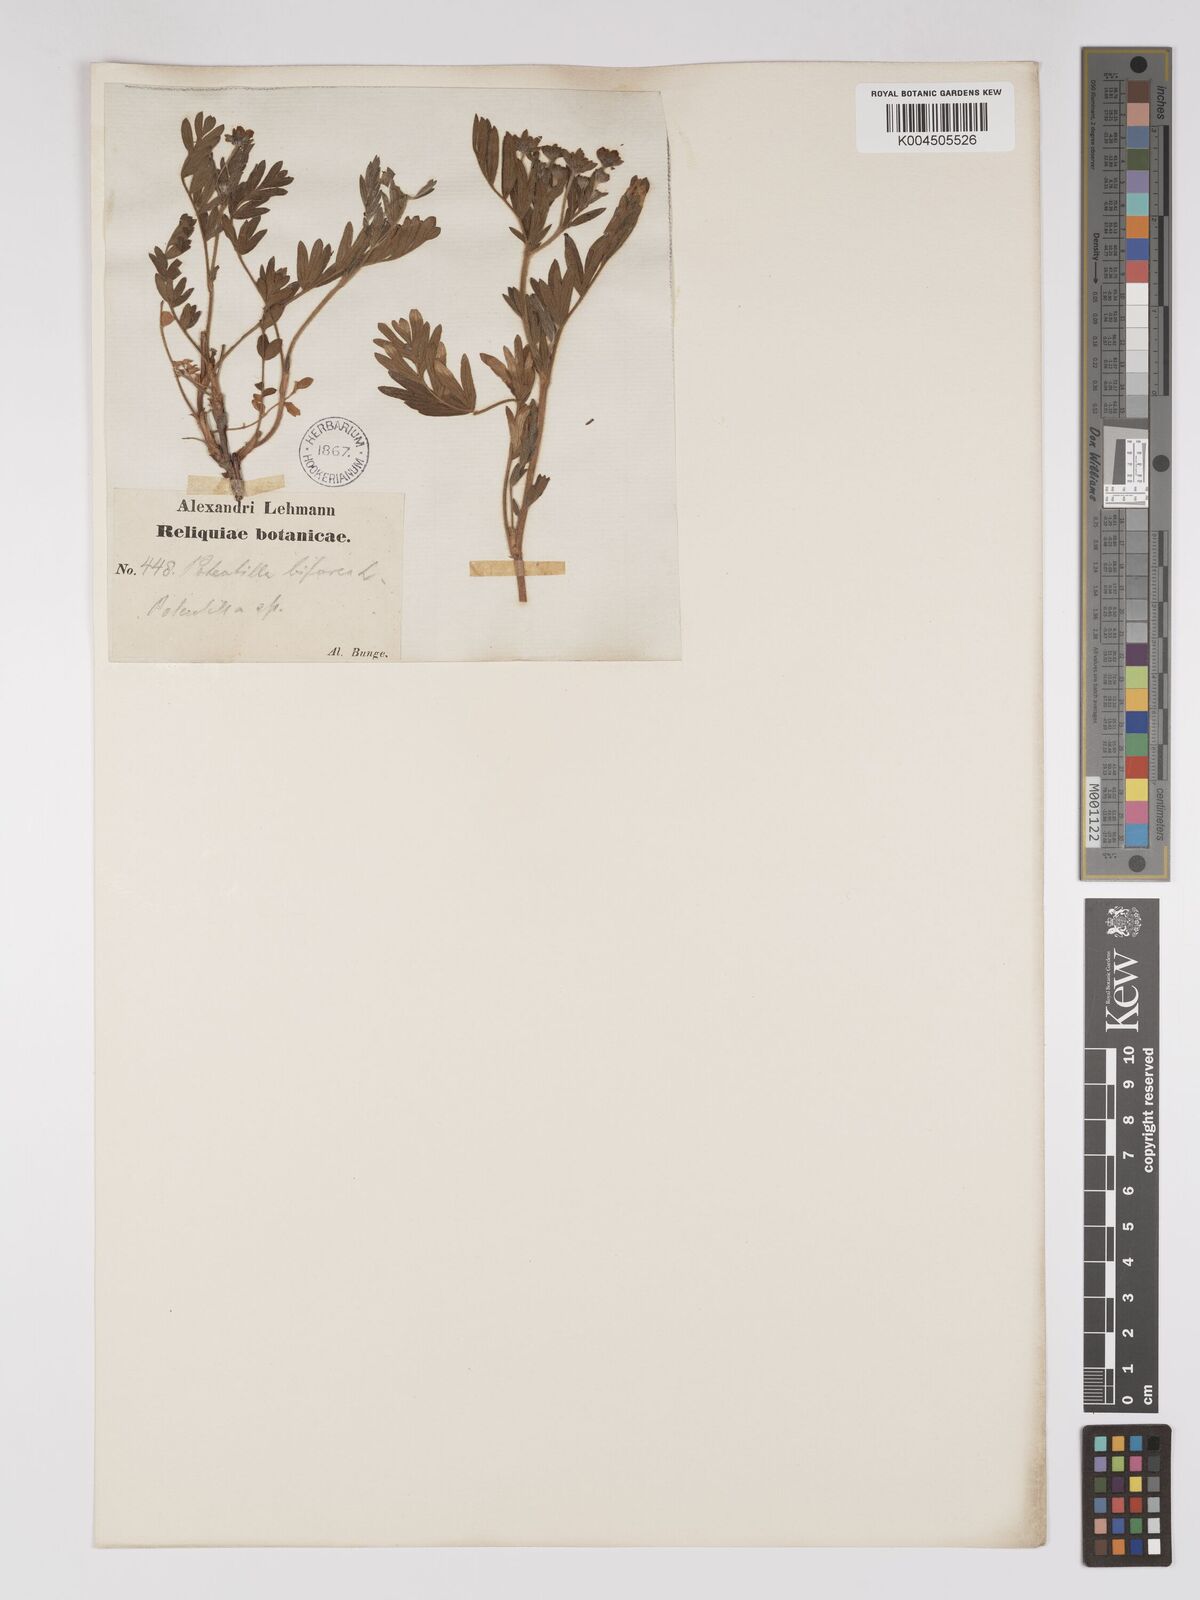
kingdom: Plantae
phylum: Tracheophyta
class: Magnoliopsida
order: Rosales
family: Rosaceae
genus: Sibbaldianthe
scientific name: Sibbaldianthe bifurca
